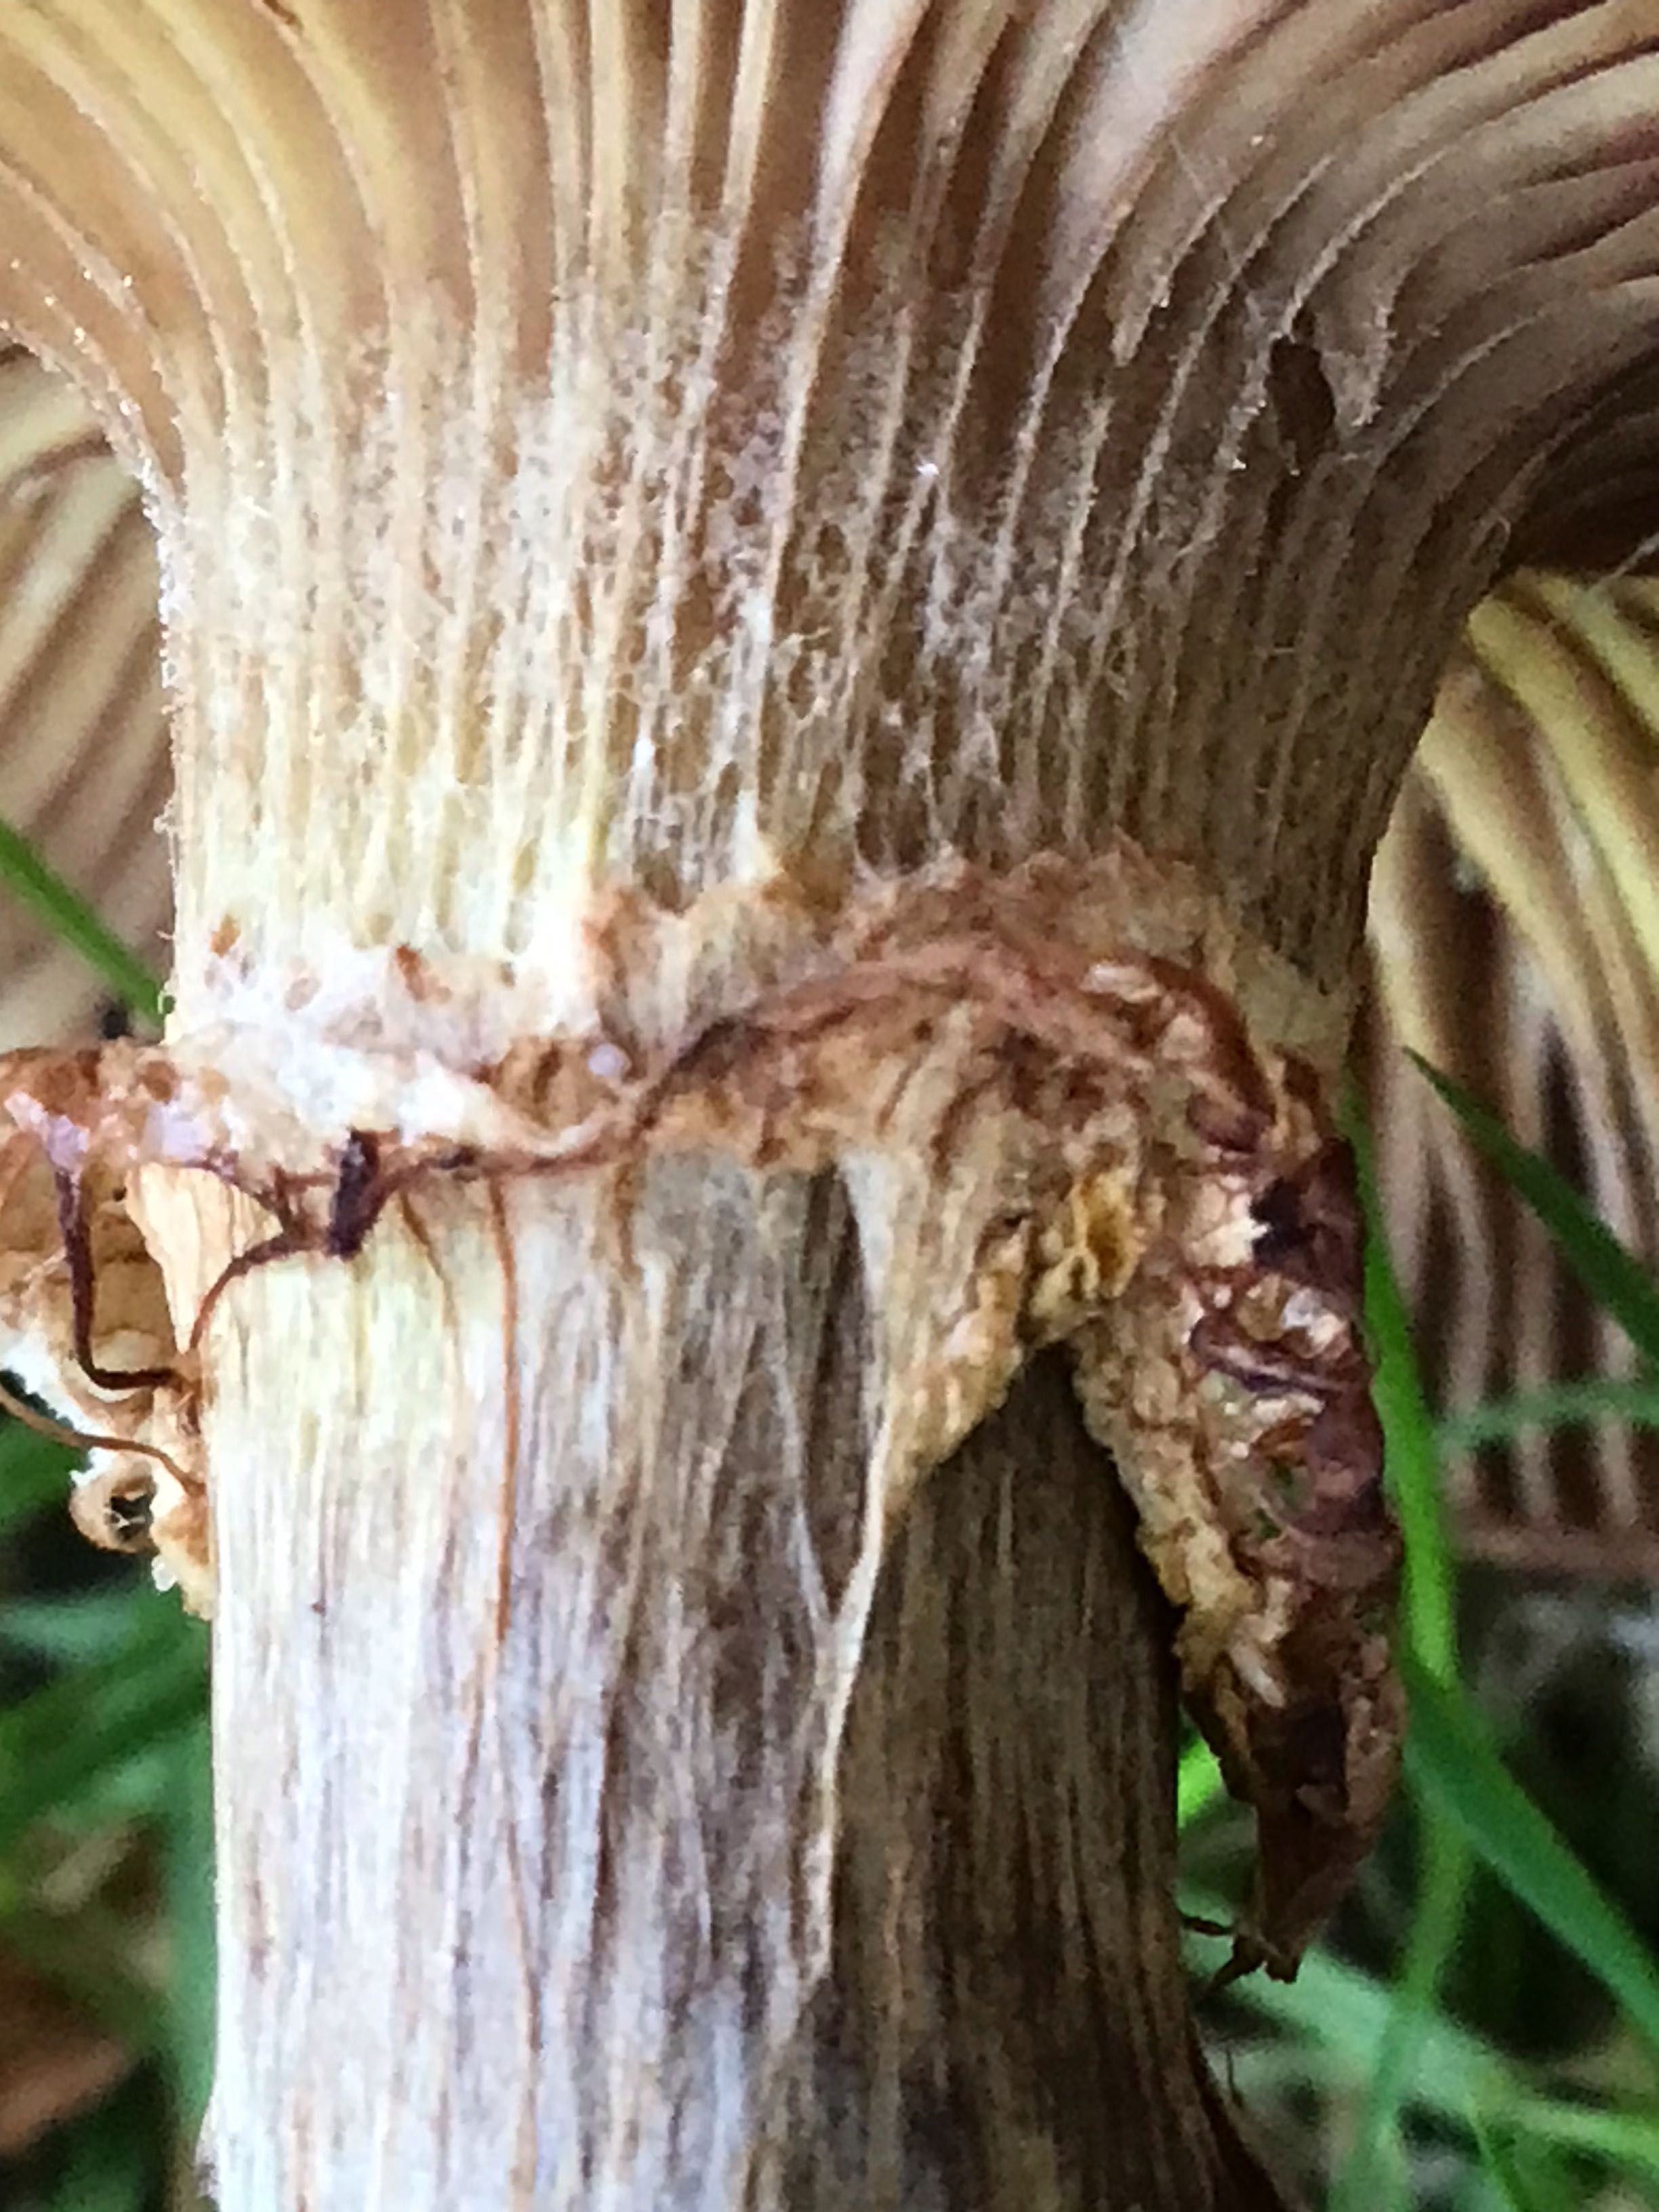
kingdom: Fungi
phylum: Basidiomycota
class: Agaricomycetes
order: Agaricales
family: Physalacriaceae
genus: Armillaria
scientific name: Armillaria
